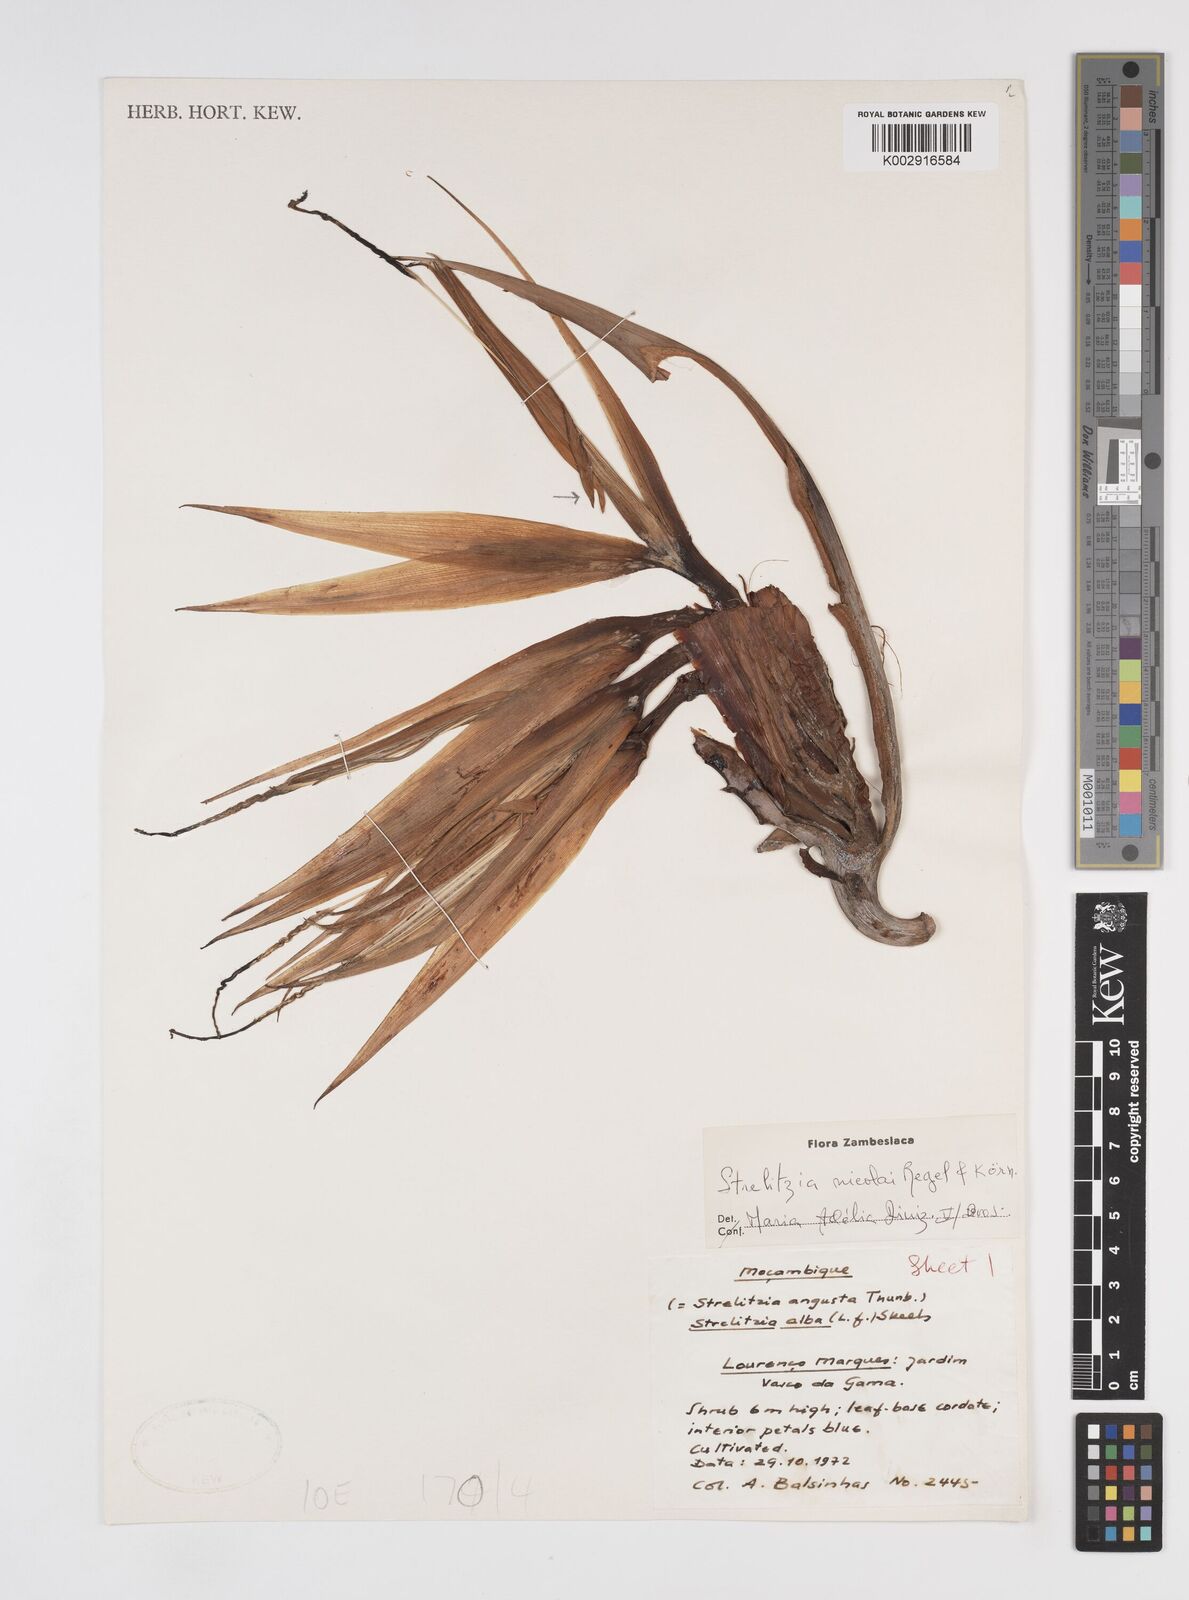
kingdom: Plantae
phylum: Tracheophyta
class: Liliopsida
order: Zingiberales
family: Strelitziaceae
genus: Strelitzia
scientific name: Strelitzia nicolai
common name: Bird-of-paradise tree
